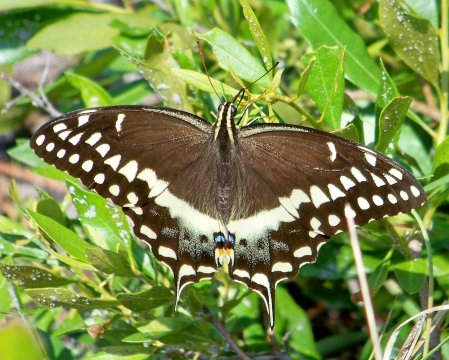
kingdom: Animalia
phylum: Arthropoda
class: Insecta
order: Lepidoptera
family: Papilionidae
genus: Pterourus
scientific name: Pterourus palamedes
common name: Palamedes Swallowtail
